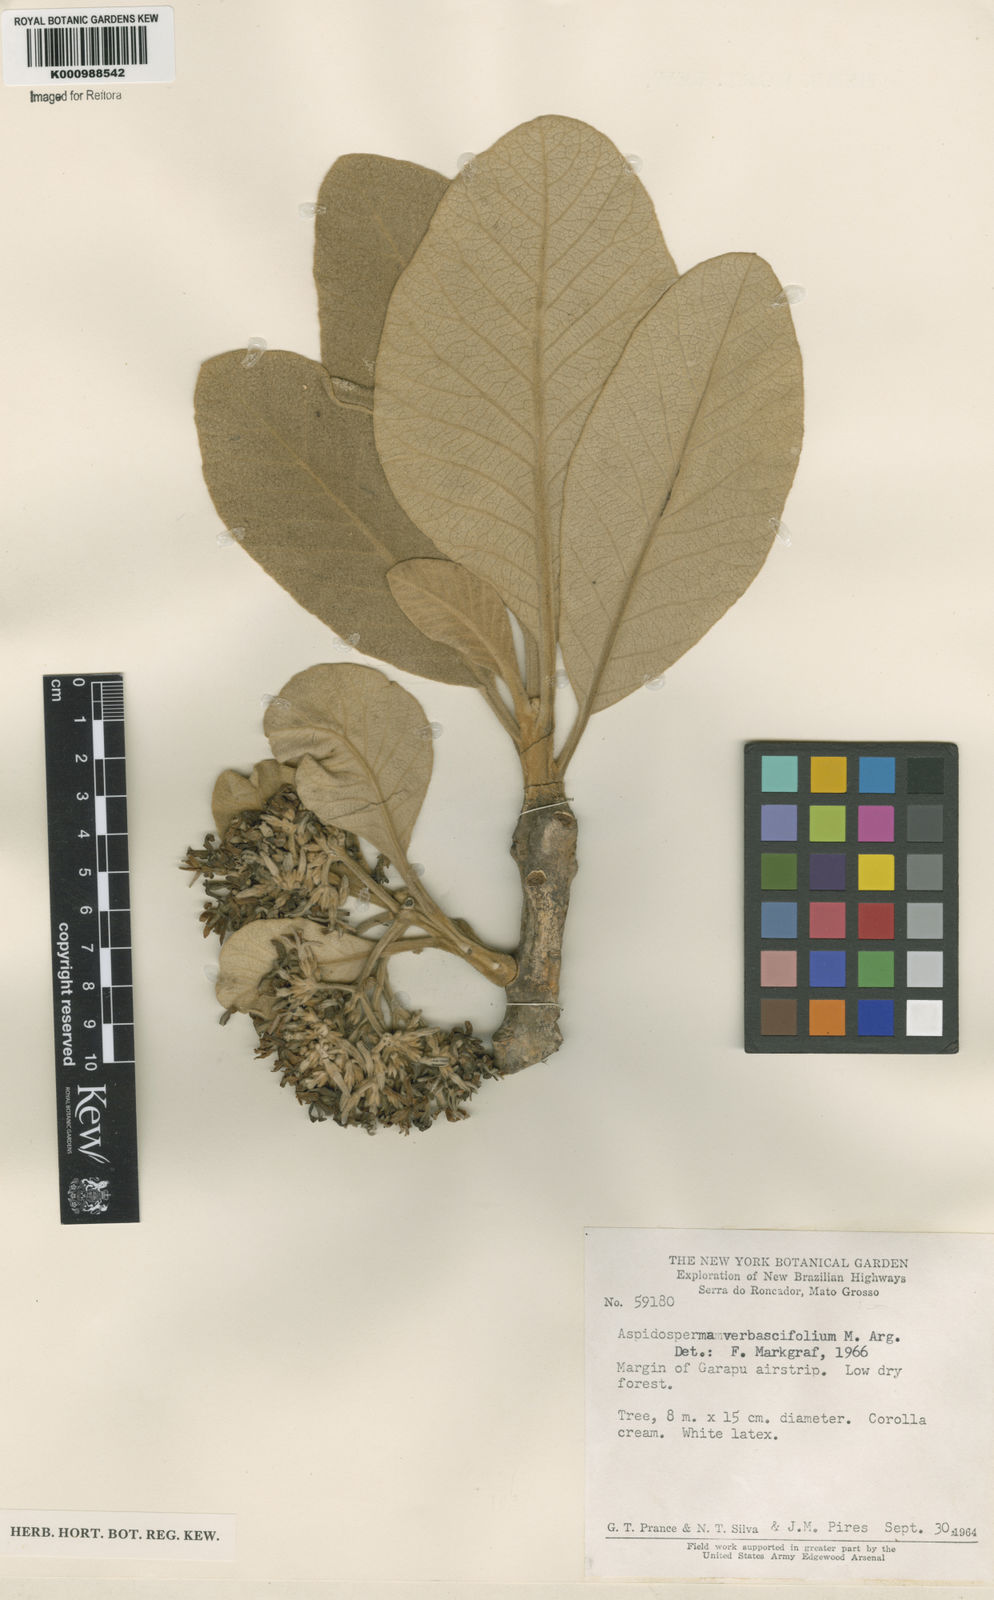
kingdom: Plantae
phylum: Tracheophyta
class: Magnoliopsida
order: Gentianales
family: Apocynaceae
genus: Aspidosperma
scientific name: Aspidosperma
